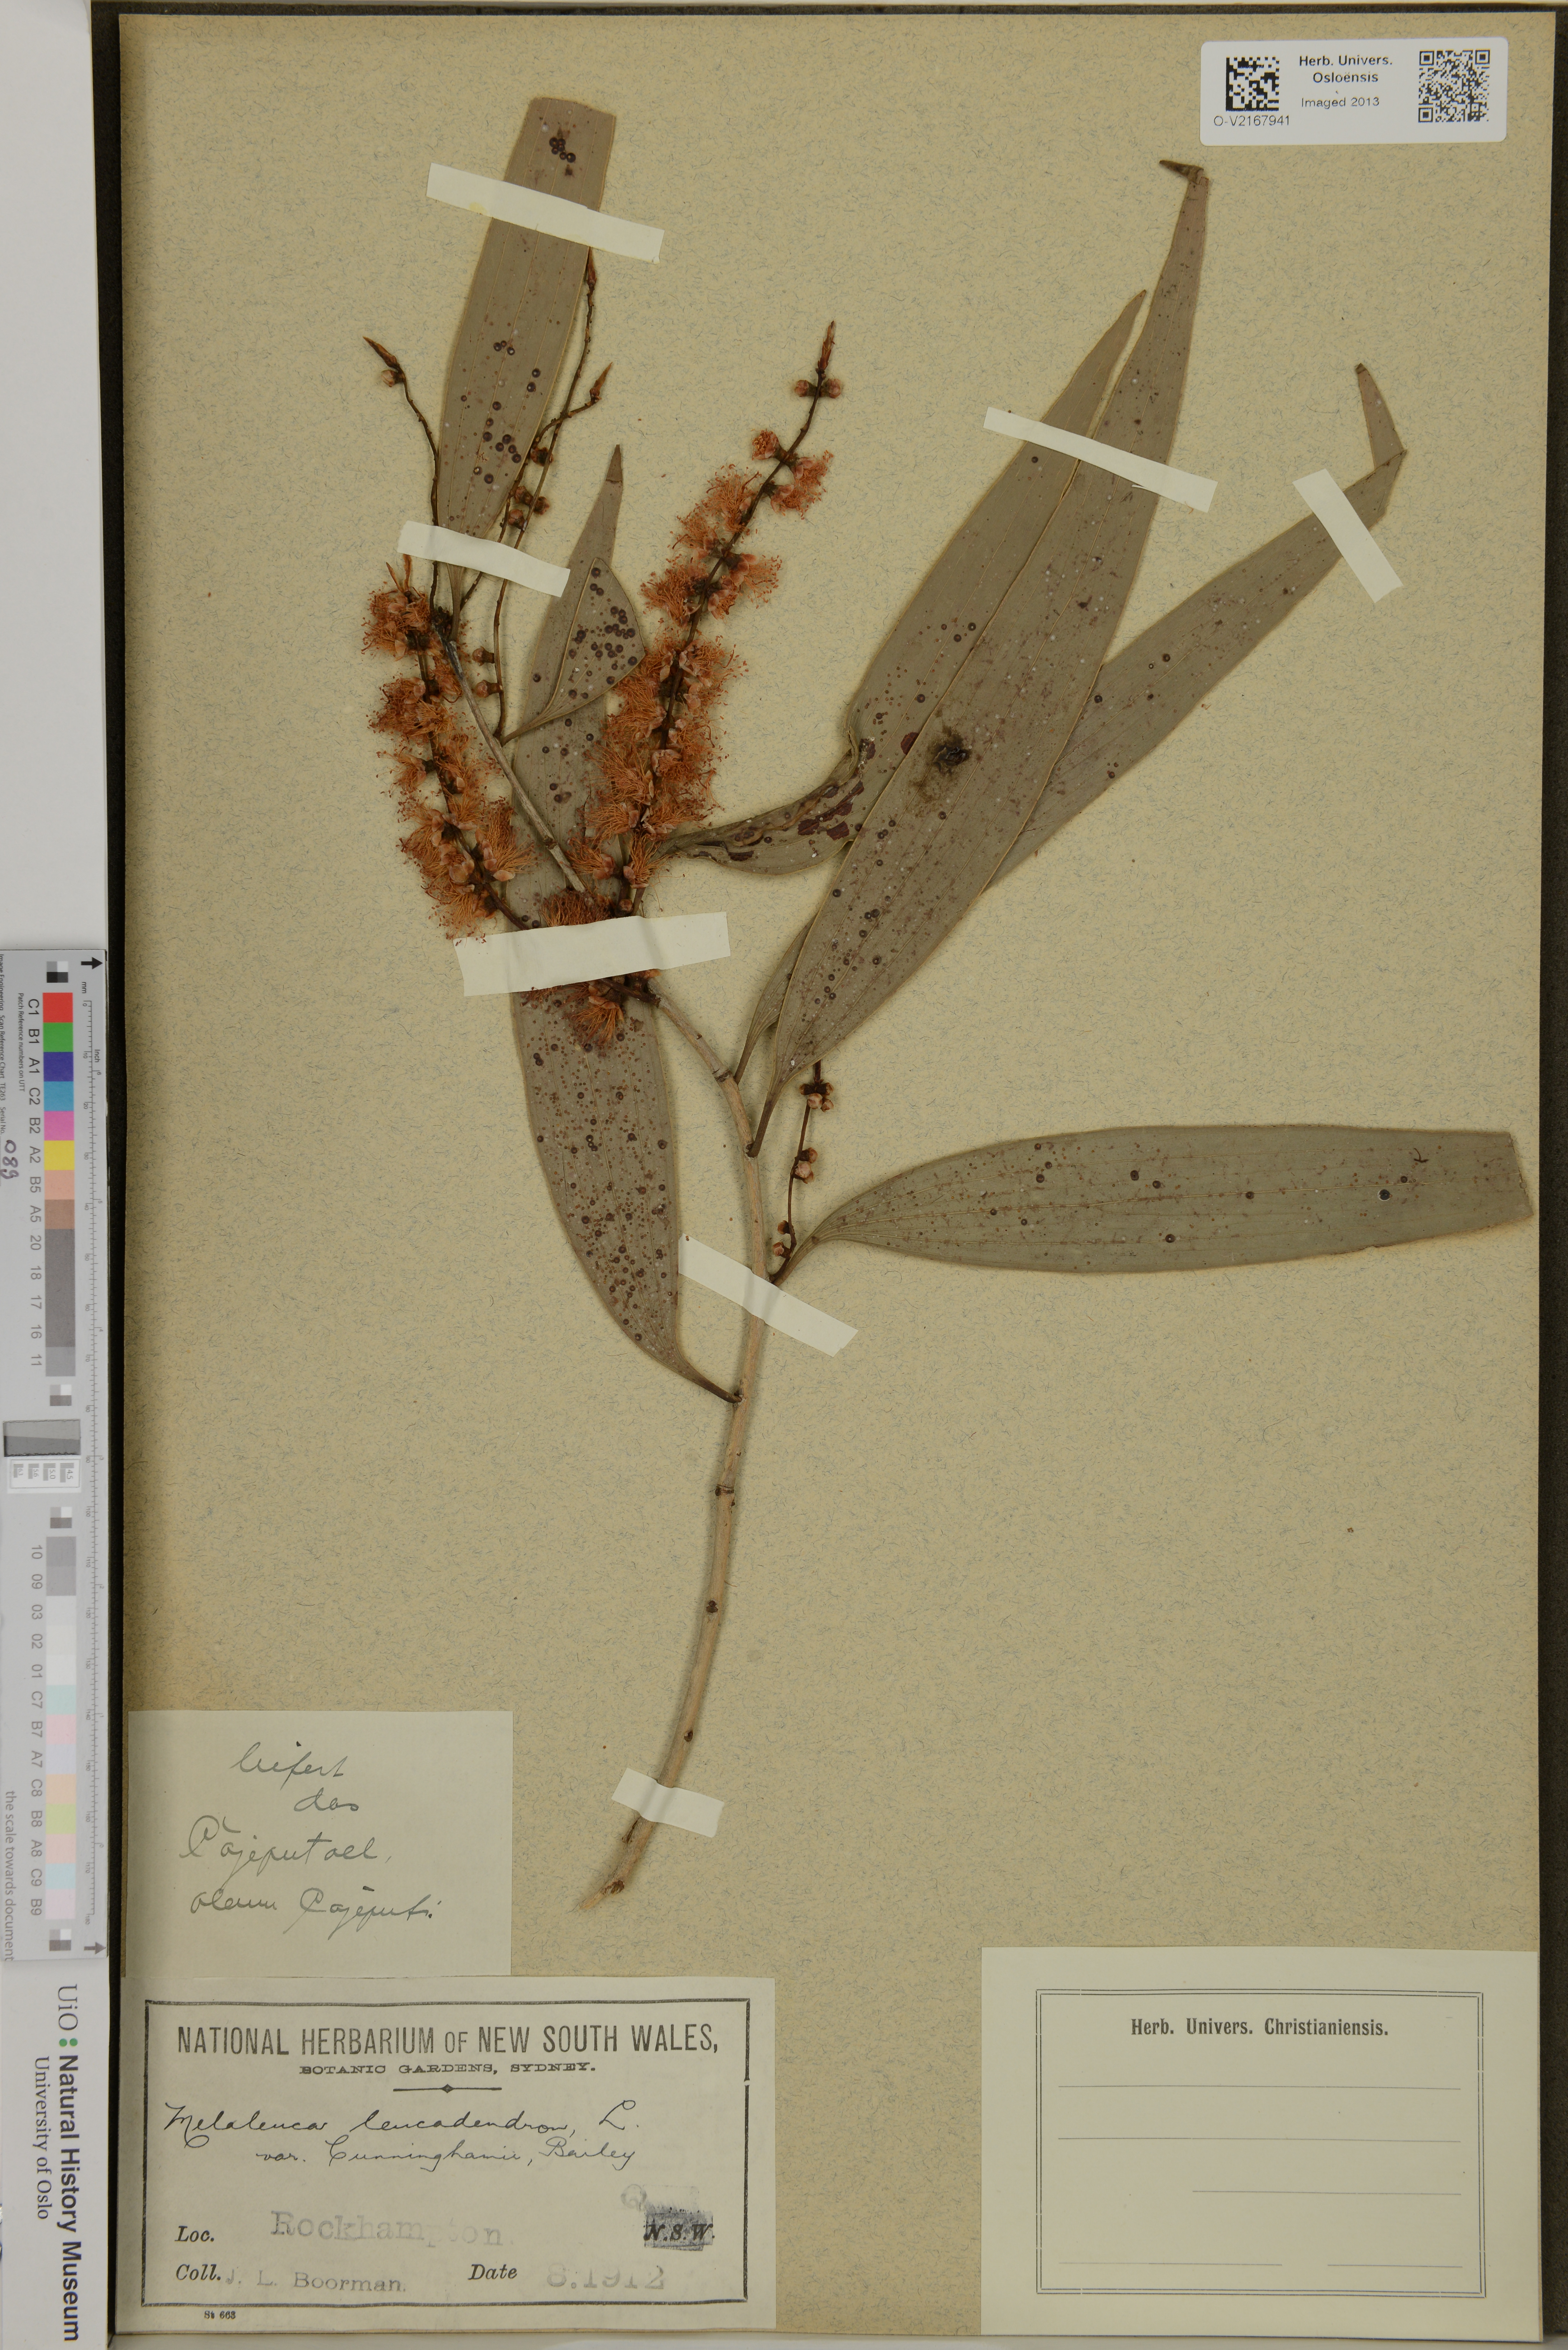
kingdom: Plantae
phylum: Tracheophyta
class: Magnoliopsida
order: Myrtales
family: Myrtaceae
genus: Melaleuca
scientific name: Melaleuca leucadendra
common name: Weeping paperbark
